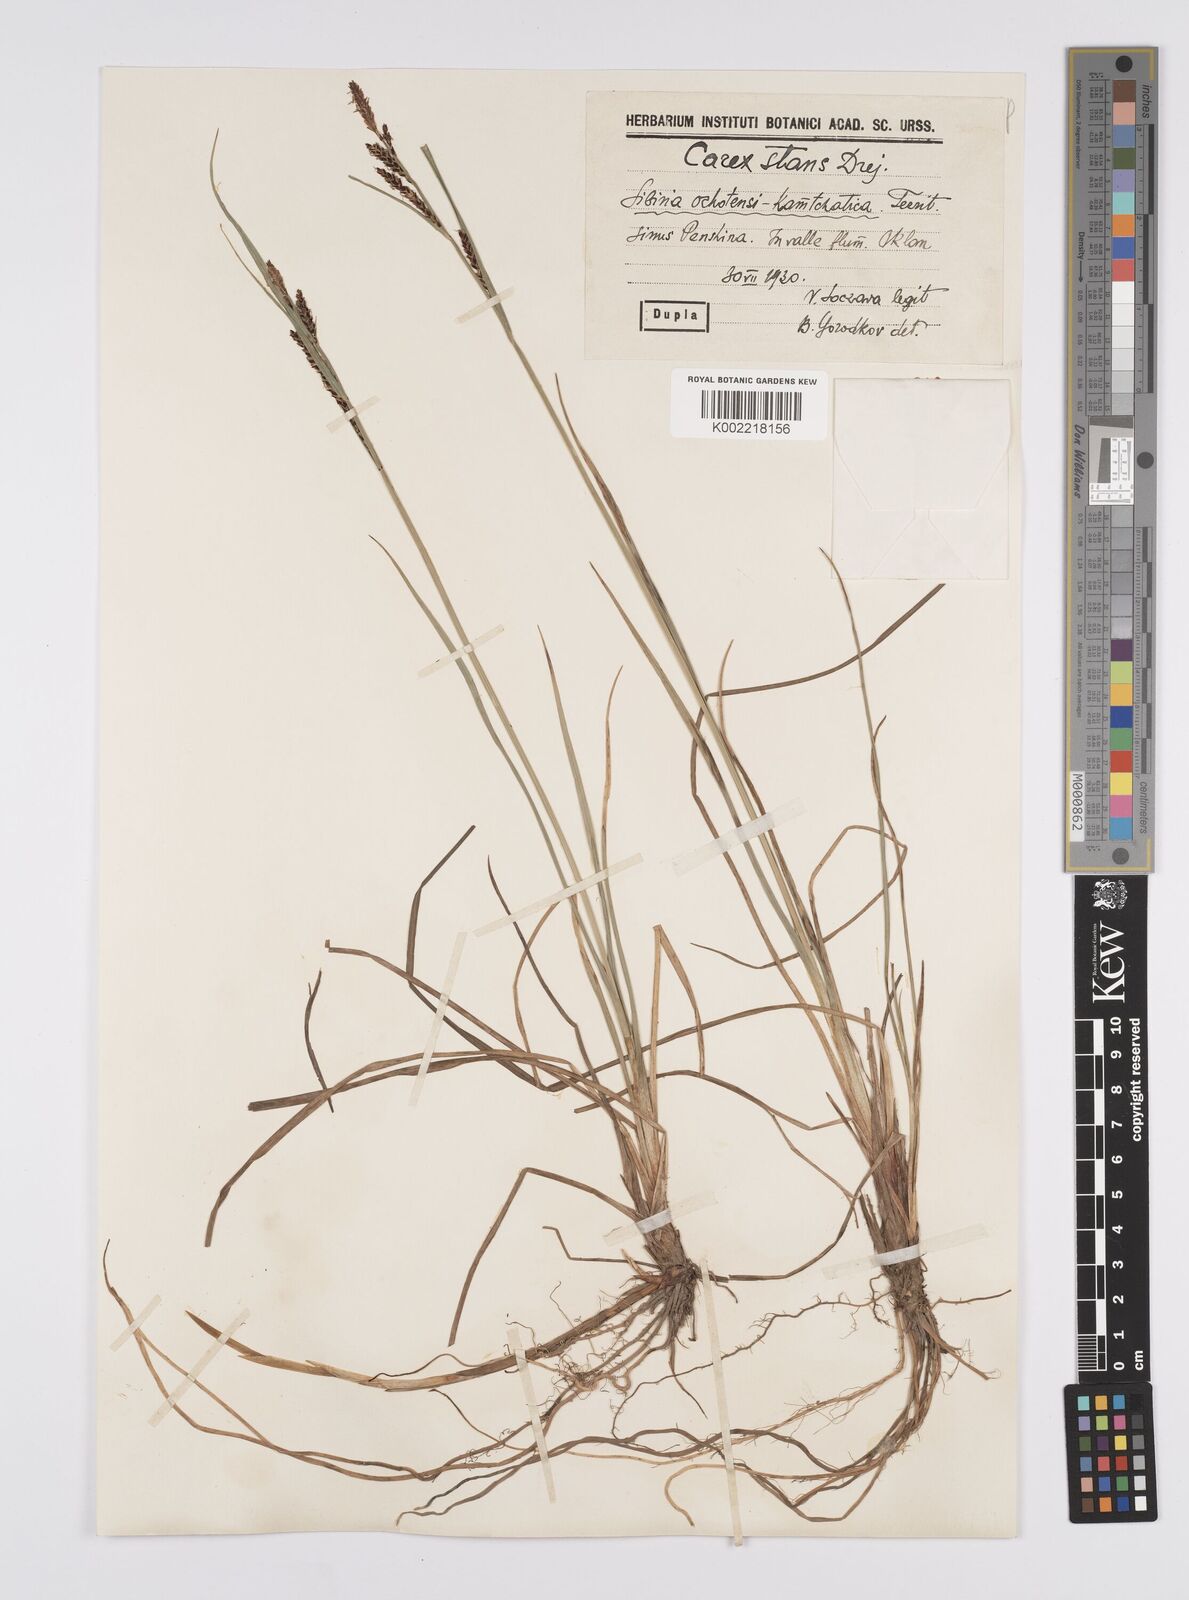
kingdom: Plantae
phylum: Tracheophyta
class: Liliopsida
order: Poales
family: Cyperaceae
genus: Carex
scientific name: Carex microsaccus
